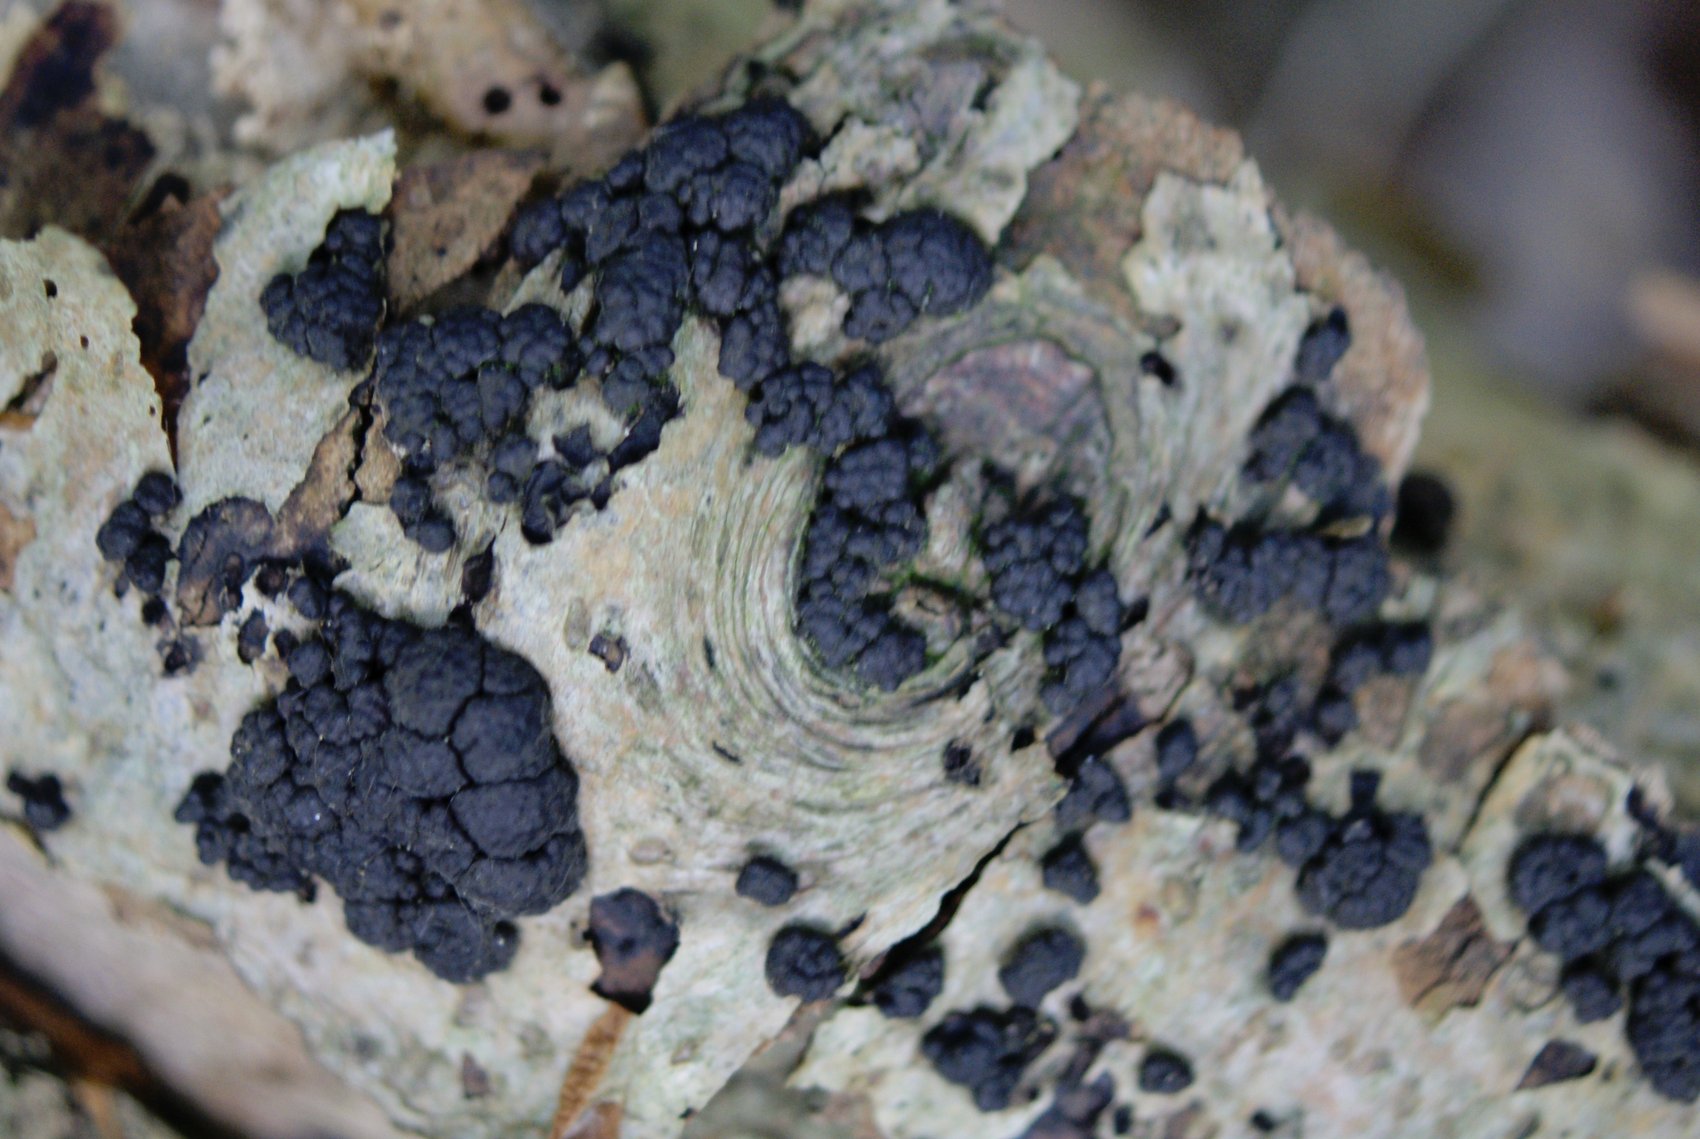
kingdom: Fungi
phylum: Ascomycota
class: Sordariomycetes
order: Xylariales
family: Hypoxylaceae
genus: Jackrogersella
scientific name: Jackrogersella cohaerens
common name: sammenflydende kulbær
